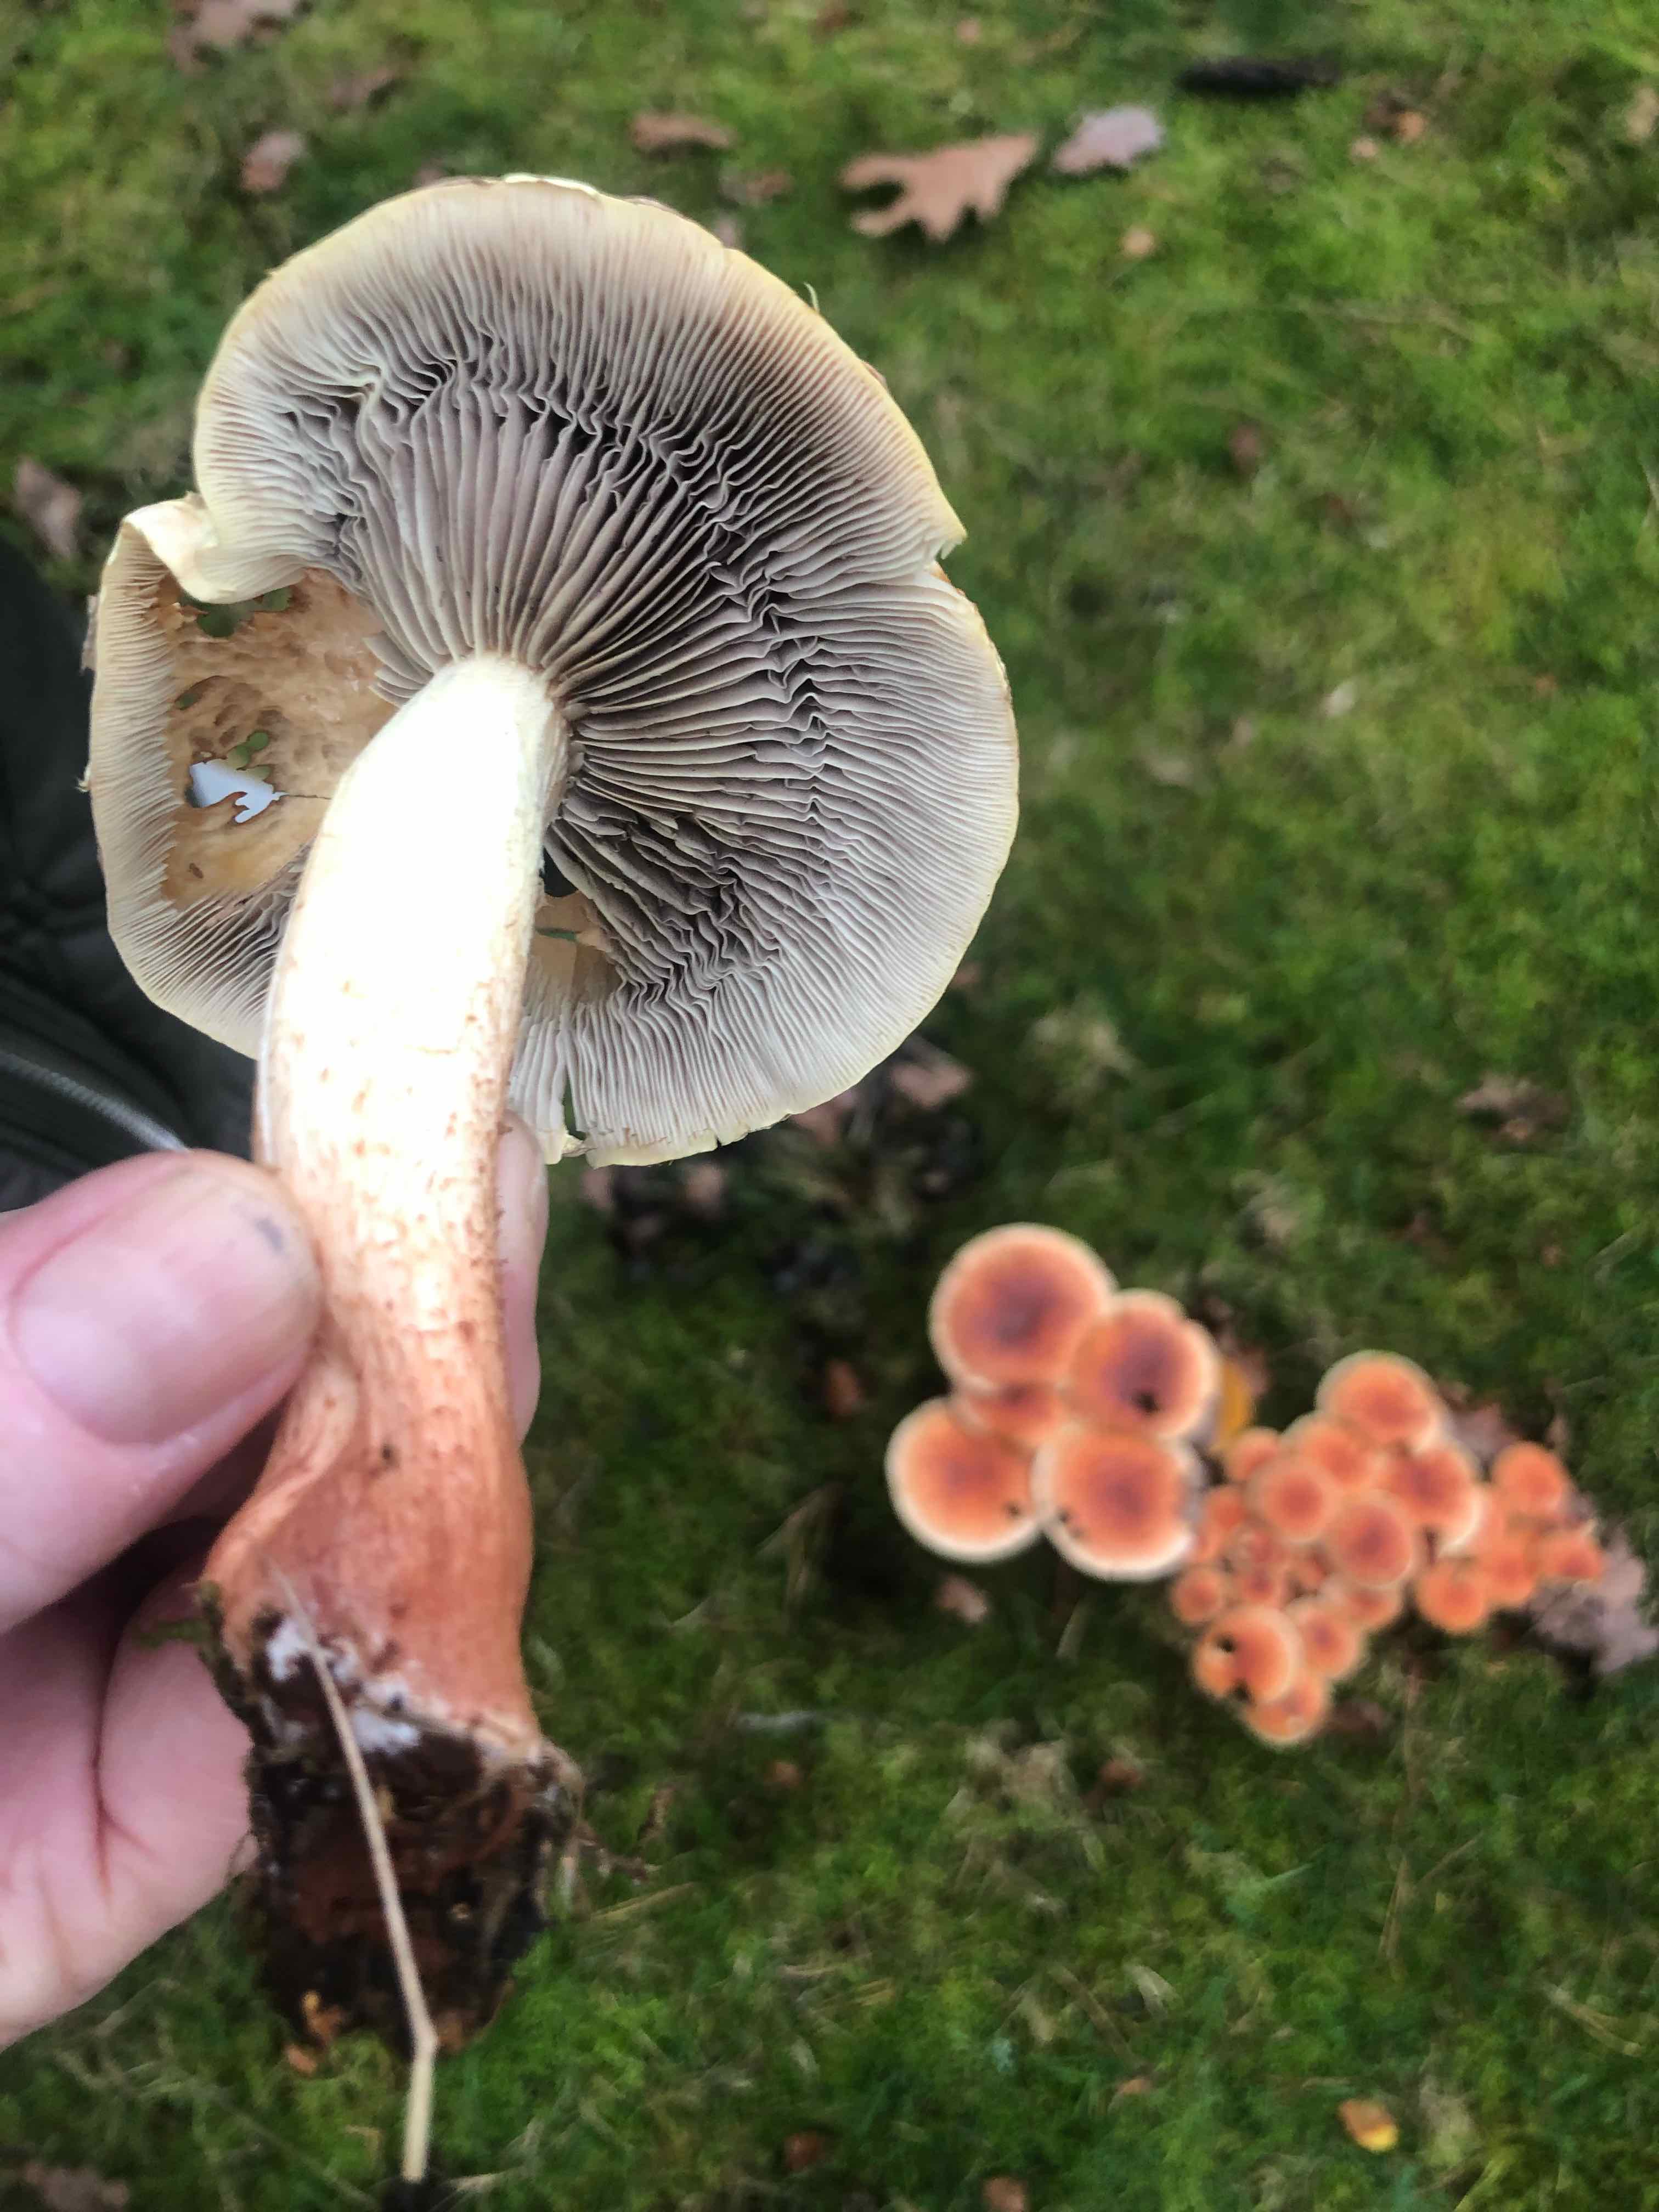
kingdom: Fungi
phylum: Basidiomycota
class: Agaricomycetes
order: Agaricales
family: Strophariaceae
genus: Hypholoma
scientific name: Hypholoma lateritium
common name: teglrød svovlhat
